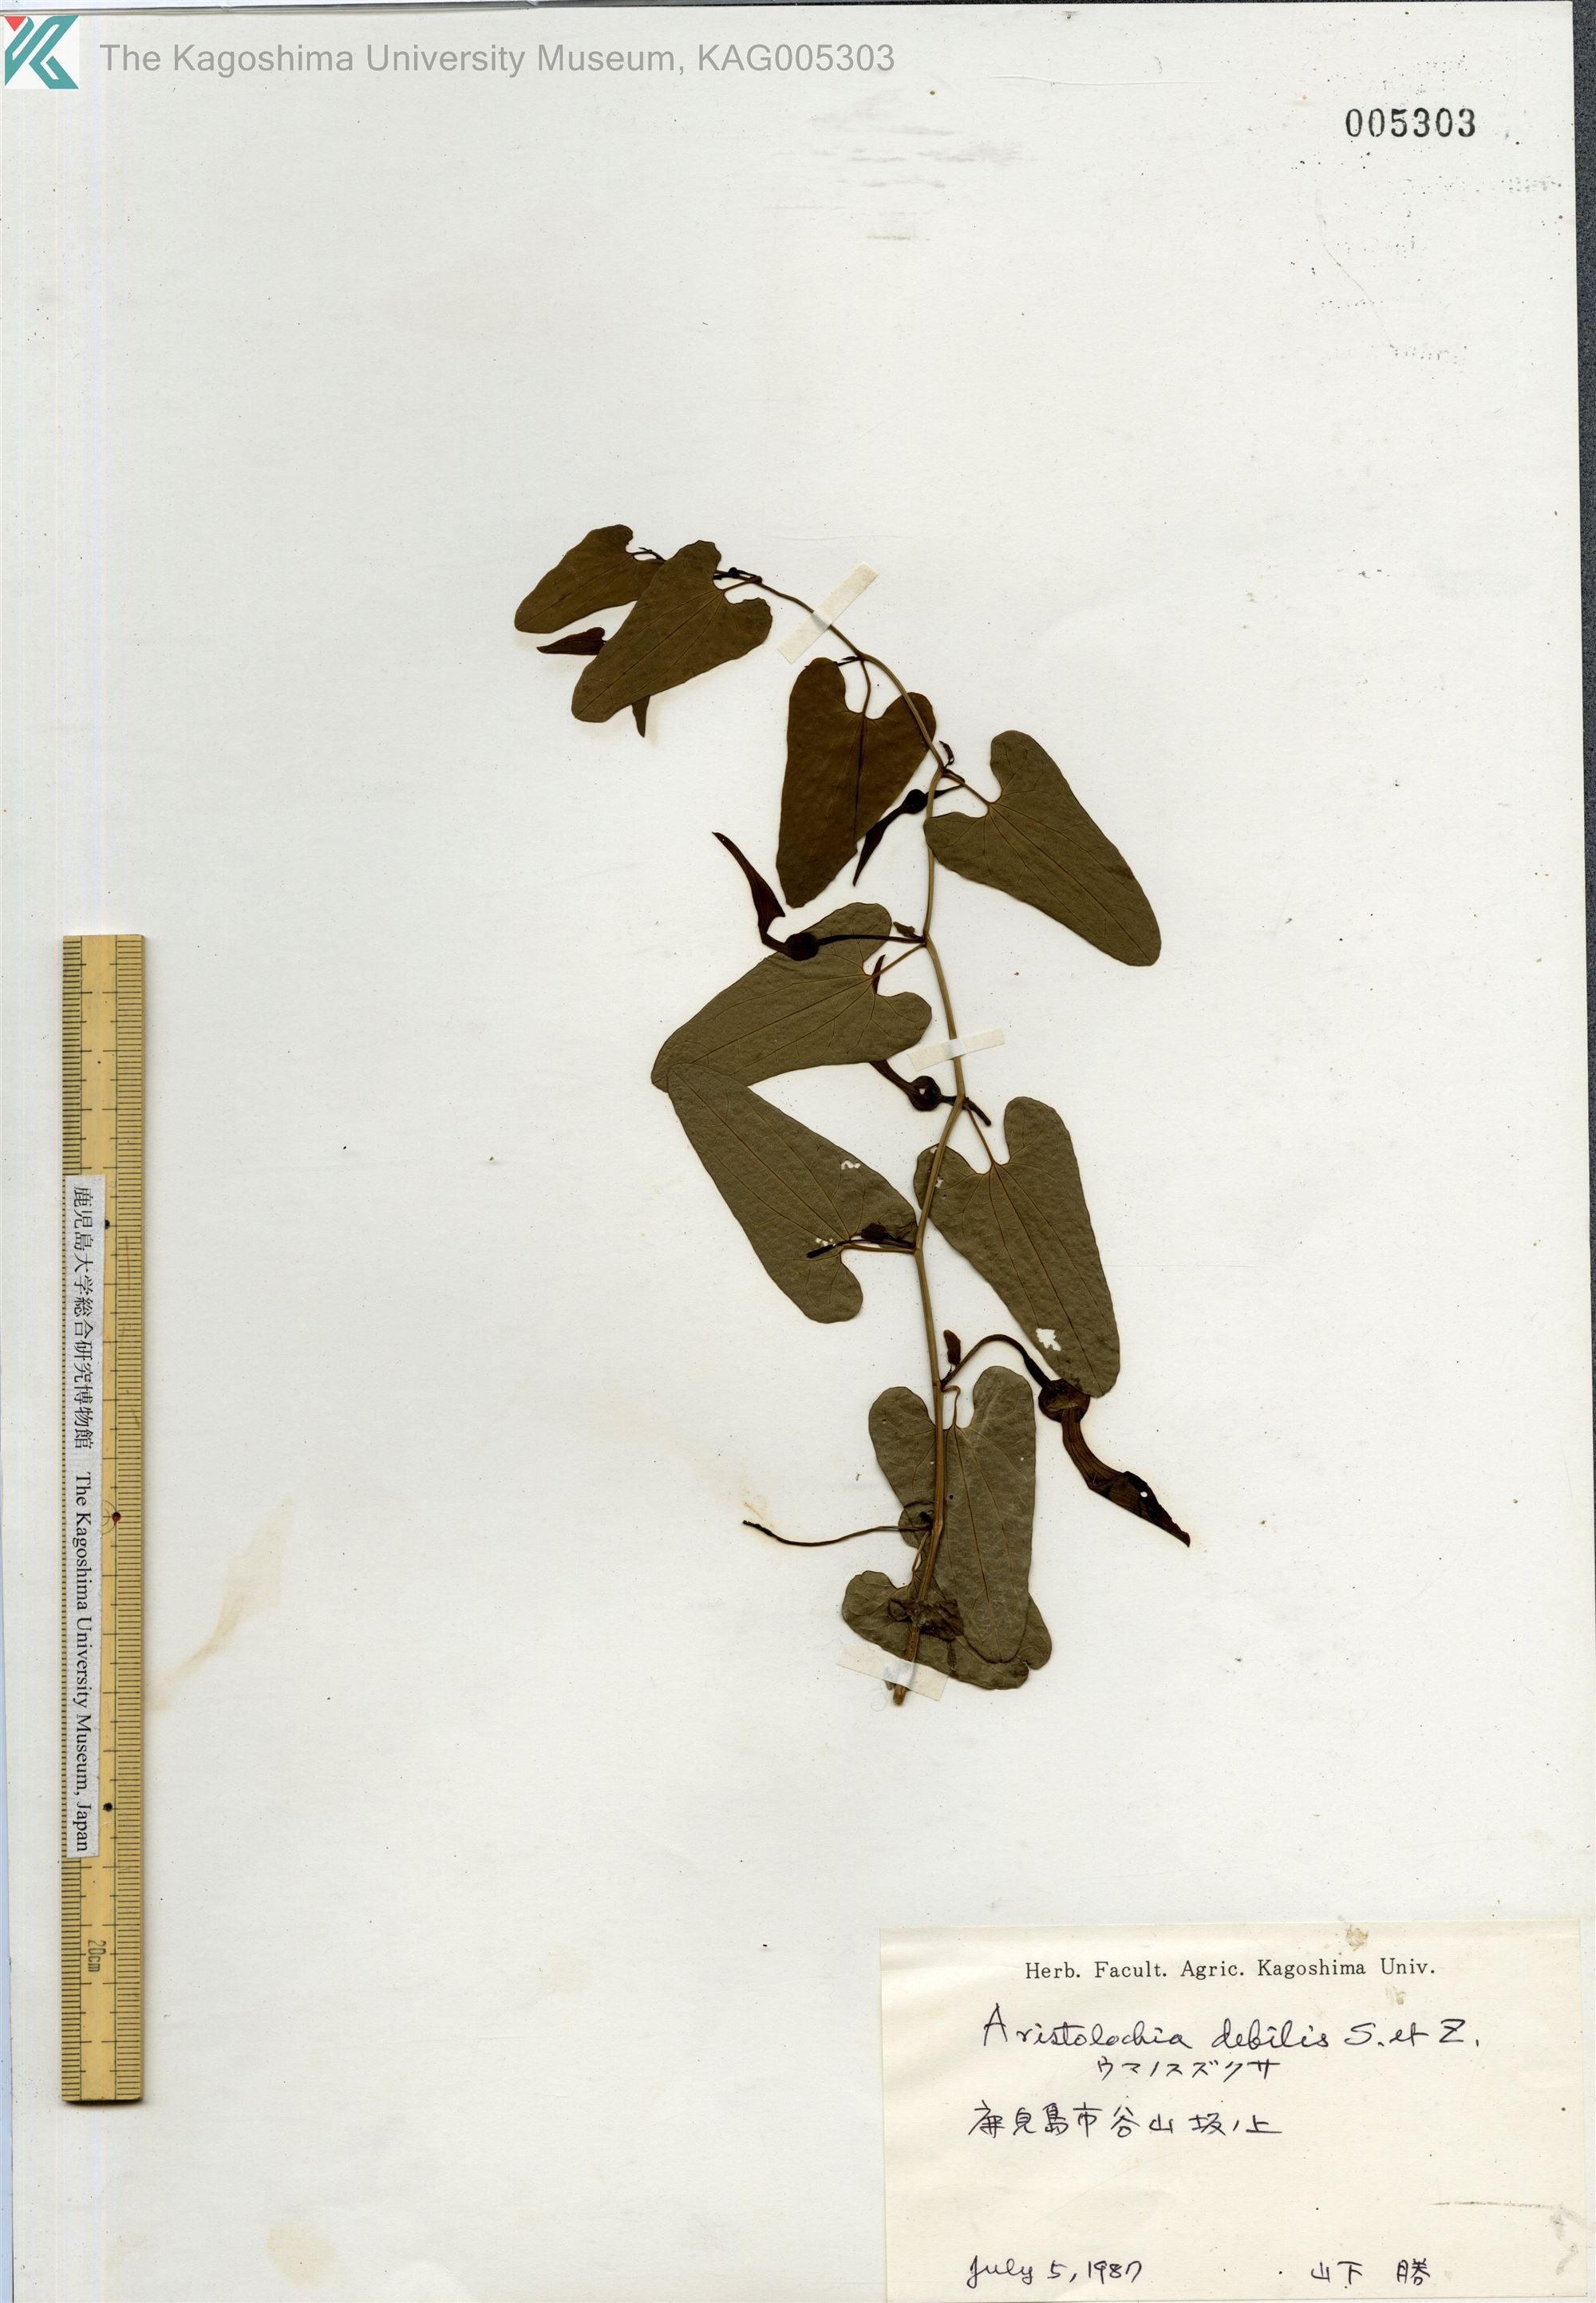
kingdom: Plantae
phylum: Tracheophyta
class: Magnoliopsida
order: Piperales
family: Aristolochiaceae
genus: Aristolochia
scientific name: Aristolochia debilis
